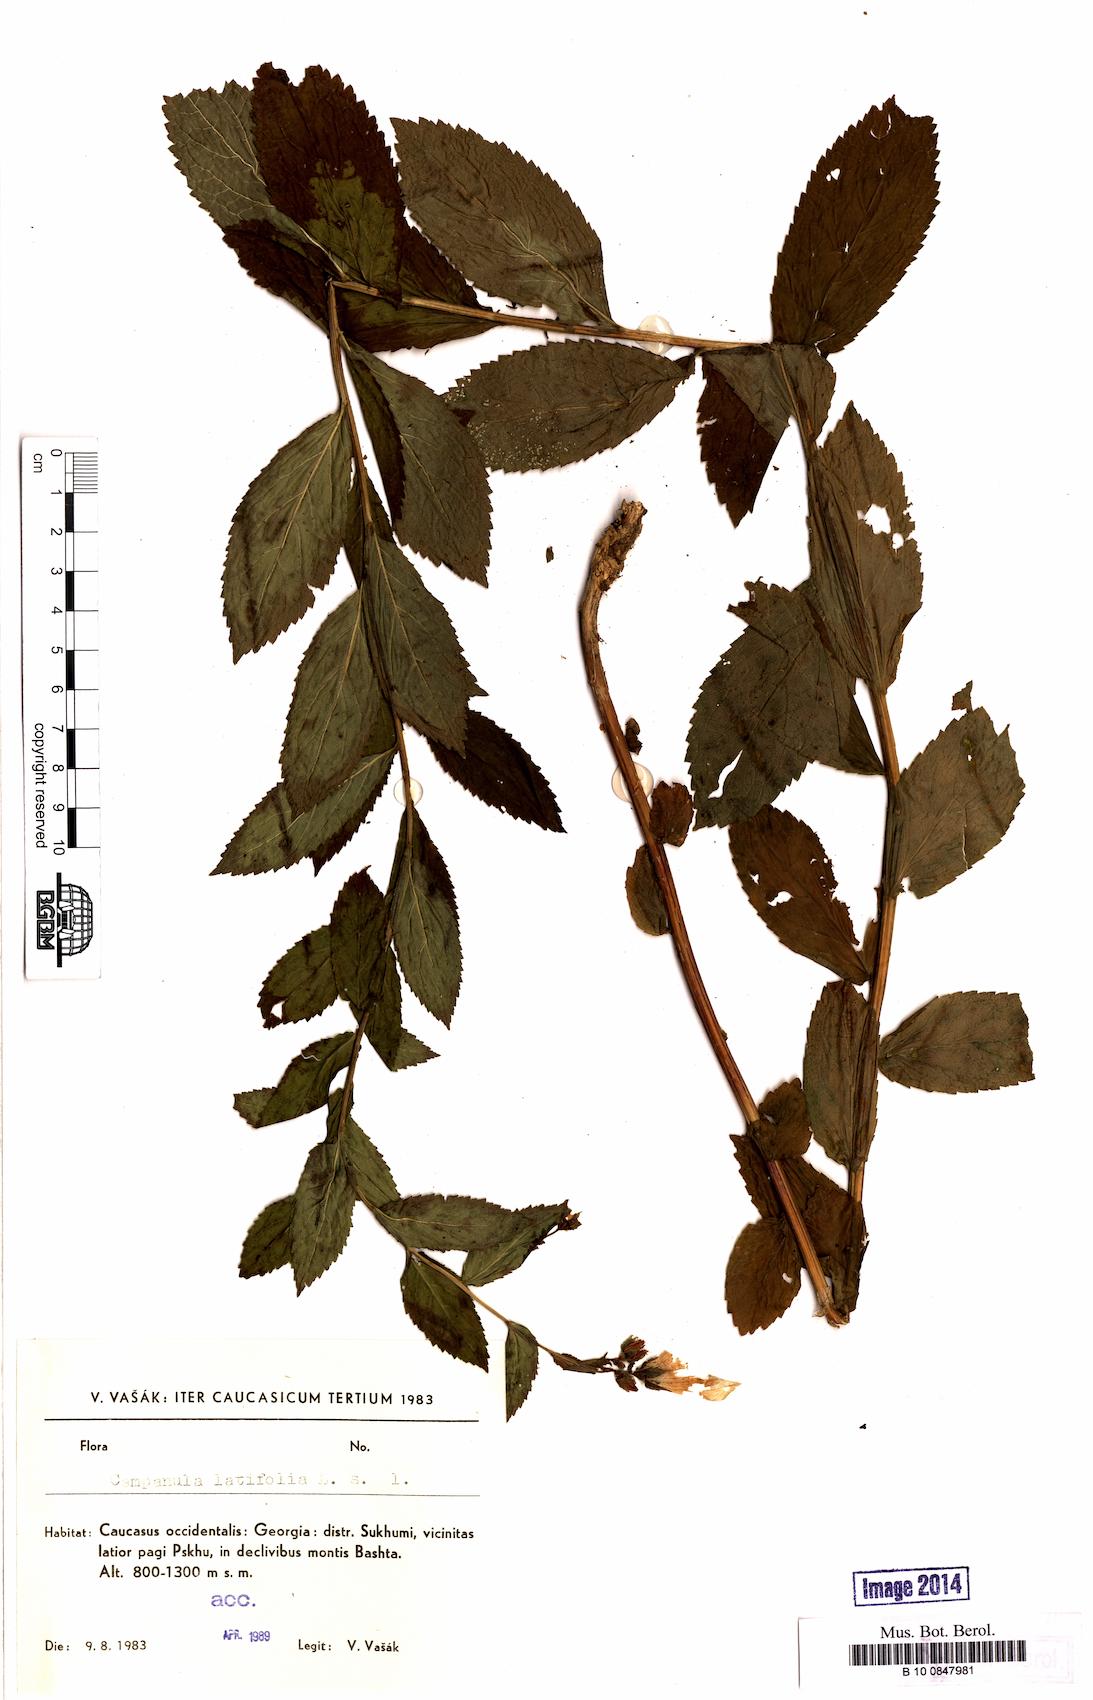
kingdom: Plantae
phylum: Tracheophyta
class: Magnoliopsida
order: Asterales
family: Campanulaceae
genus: Campanula
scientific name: Campanula latifolia
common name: Giant bellflower
